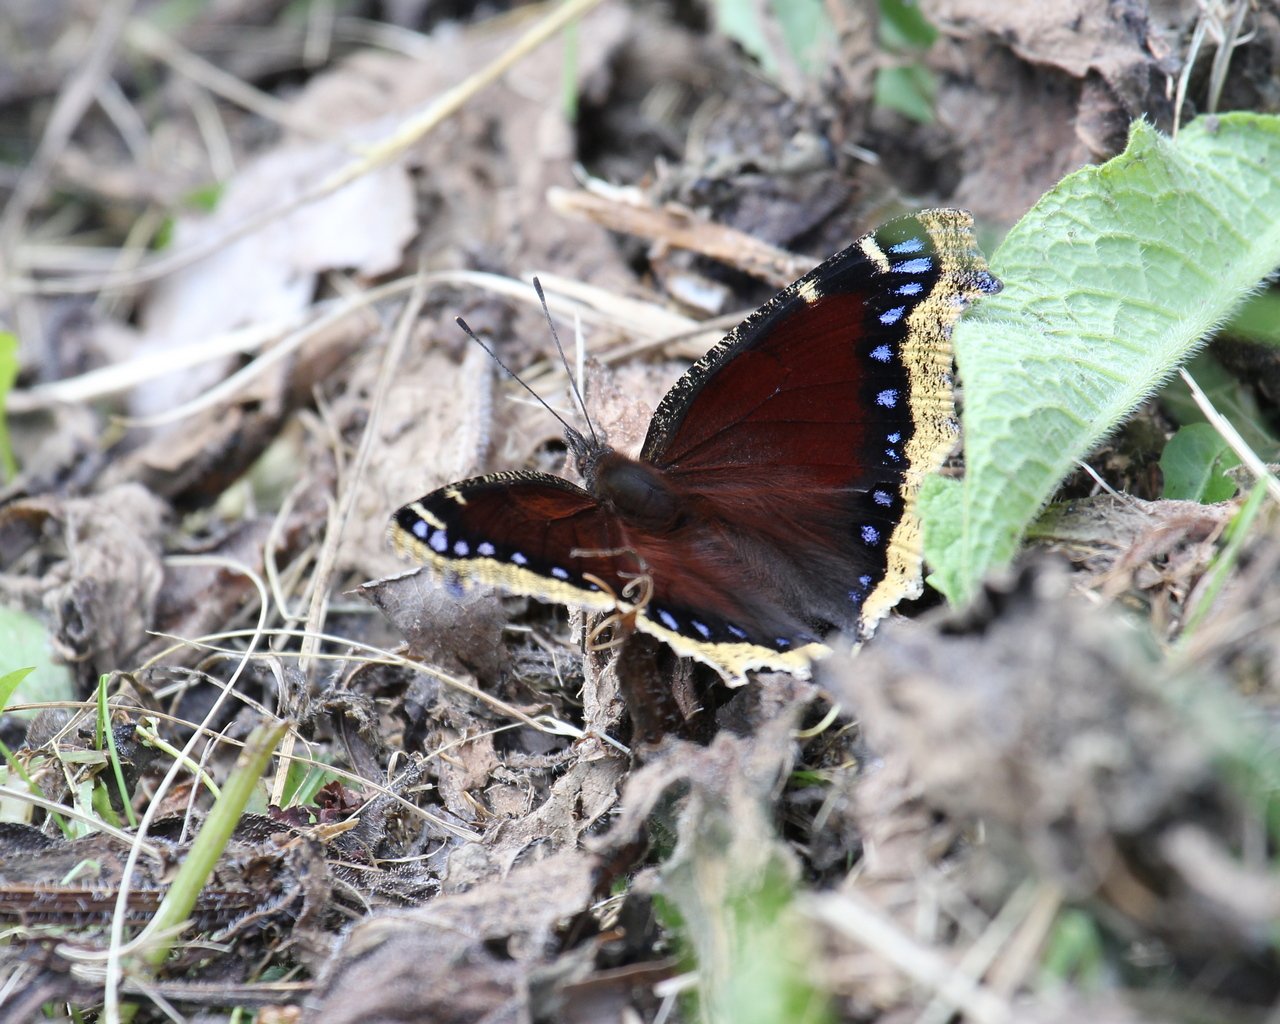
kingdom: Animalia
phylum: Arthropoda
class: Insecta
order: Lepidoptera
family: Nymphalidae
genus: Nymphalis
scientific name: Nymphalis antiopa
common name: Mourning Cloak
